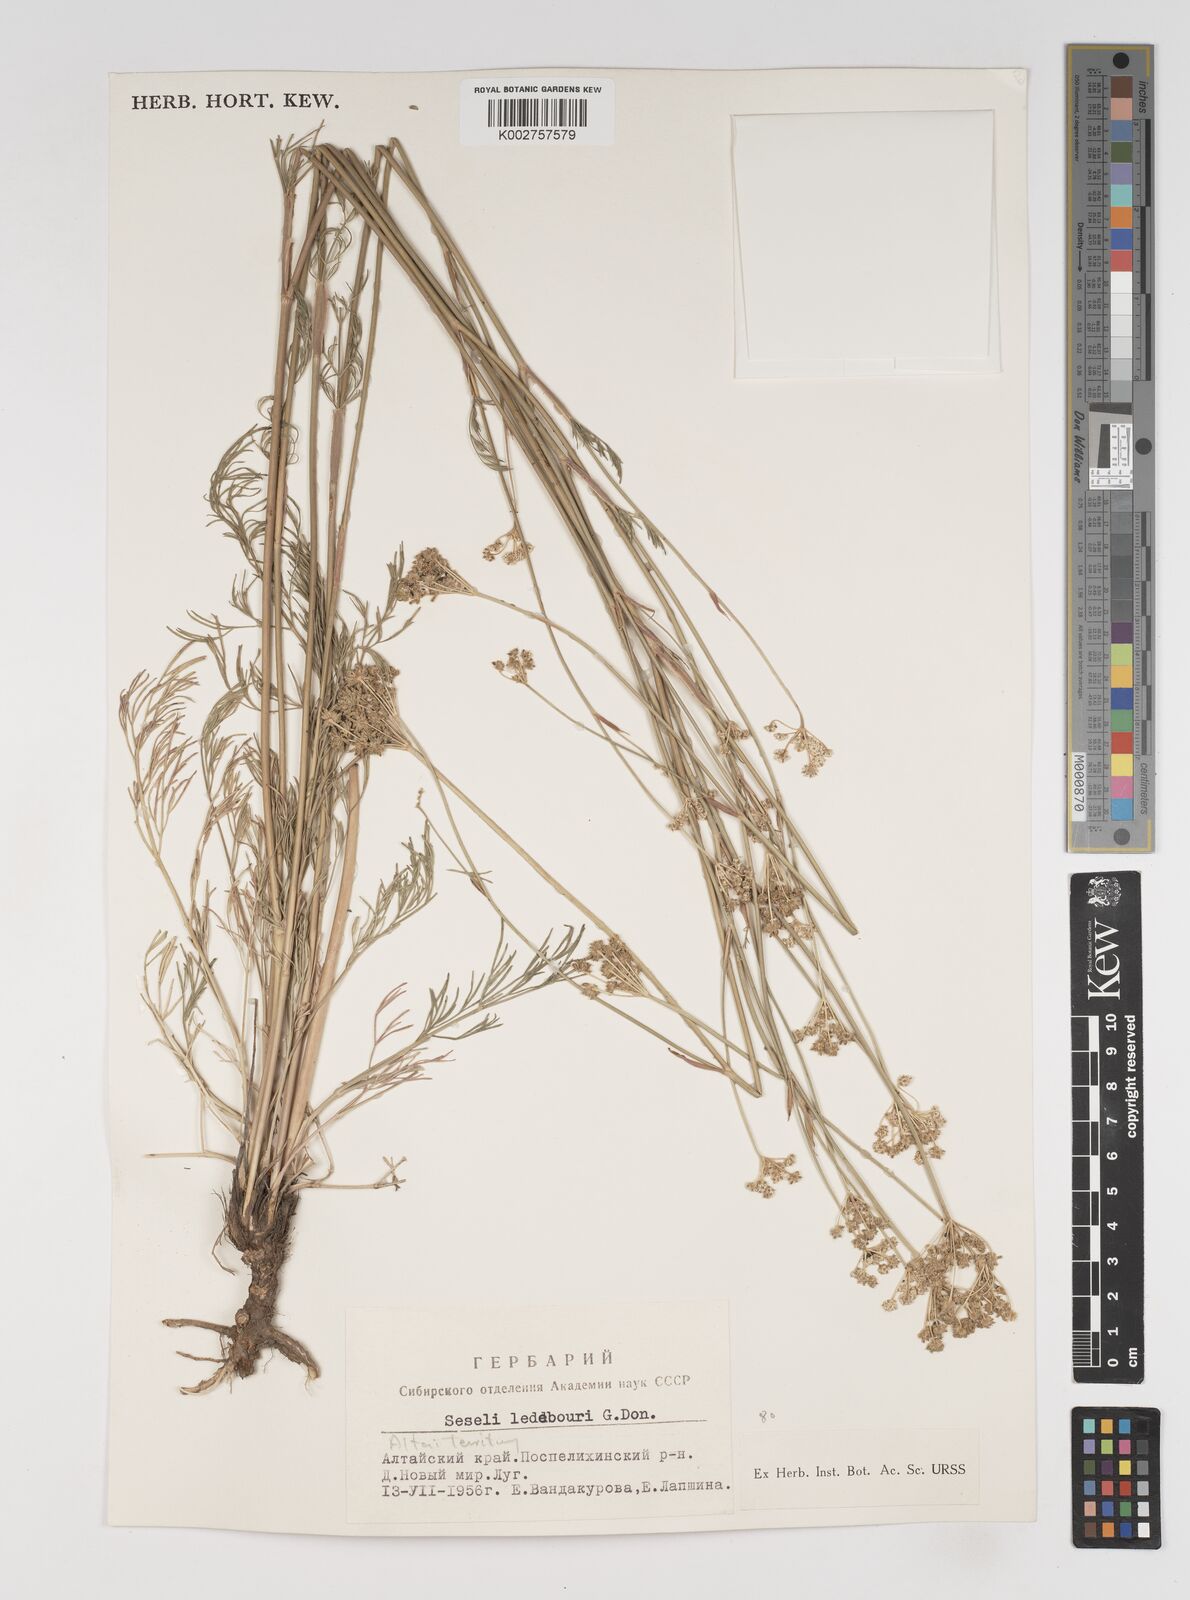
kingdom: Plantae
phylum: Tracheophyta
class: Magnoliopsida
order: Apiales
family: Apiaceae
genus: Hippomarathrum
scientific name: Hippomarathrum ledebourii
